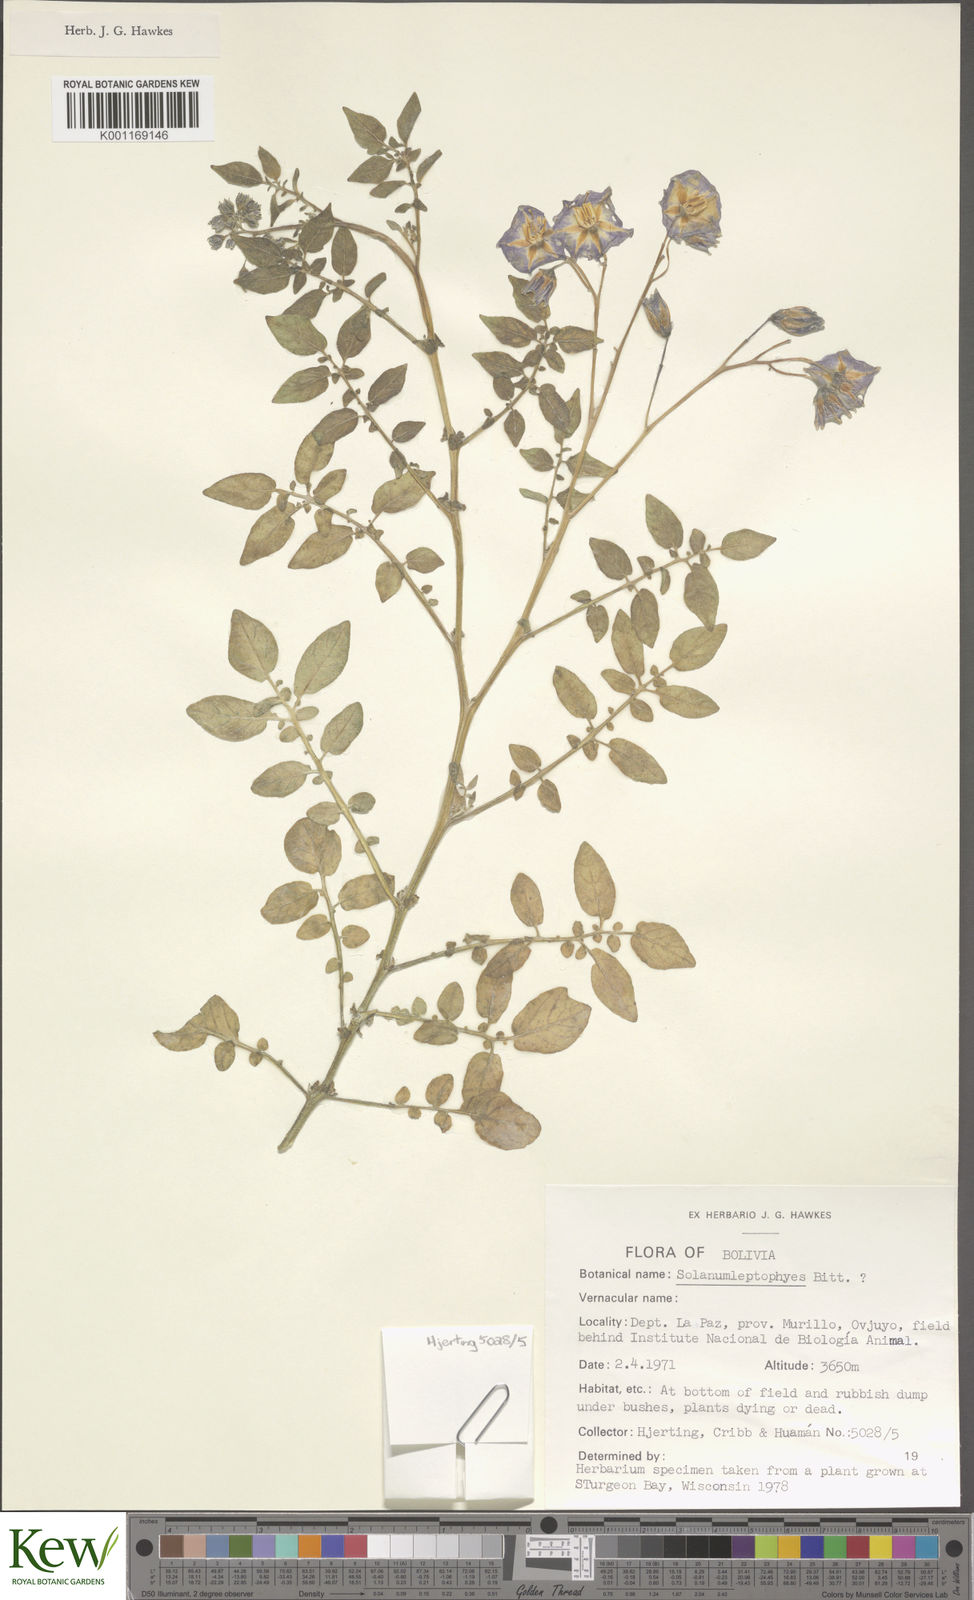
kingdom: Plantae
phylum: Tracheophyta
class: Magnoliopsida
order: Solanales
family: Solanaceae
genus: Solanum
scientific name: Solanum brevicaule
